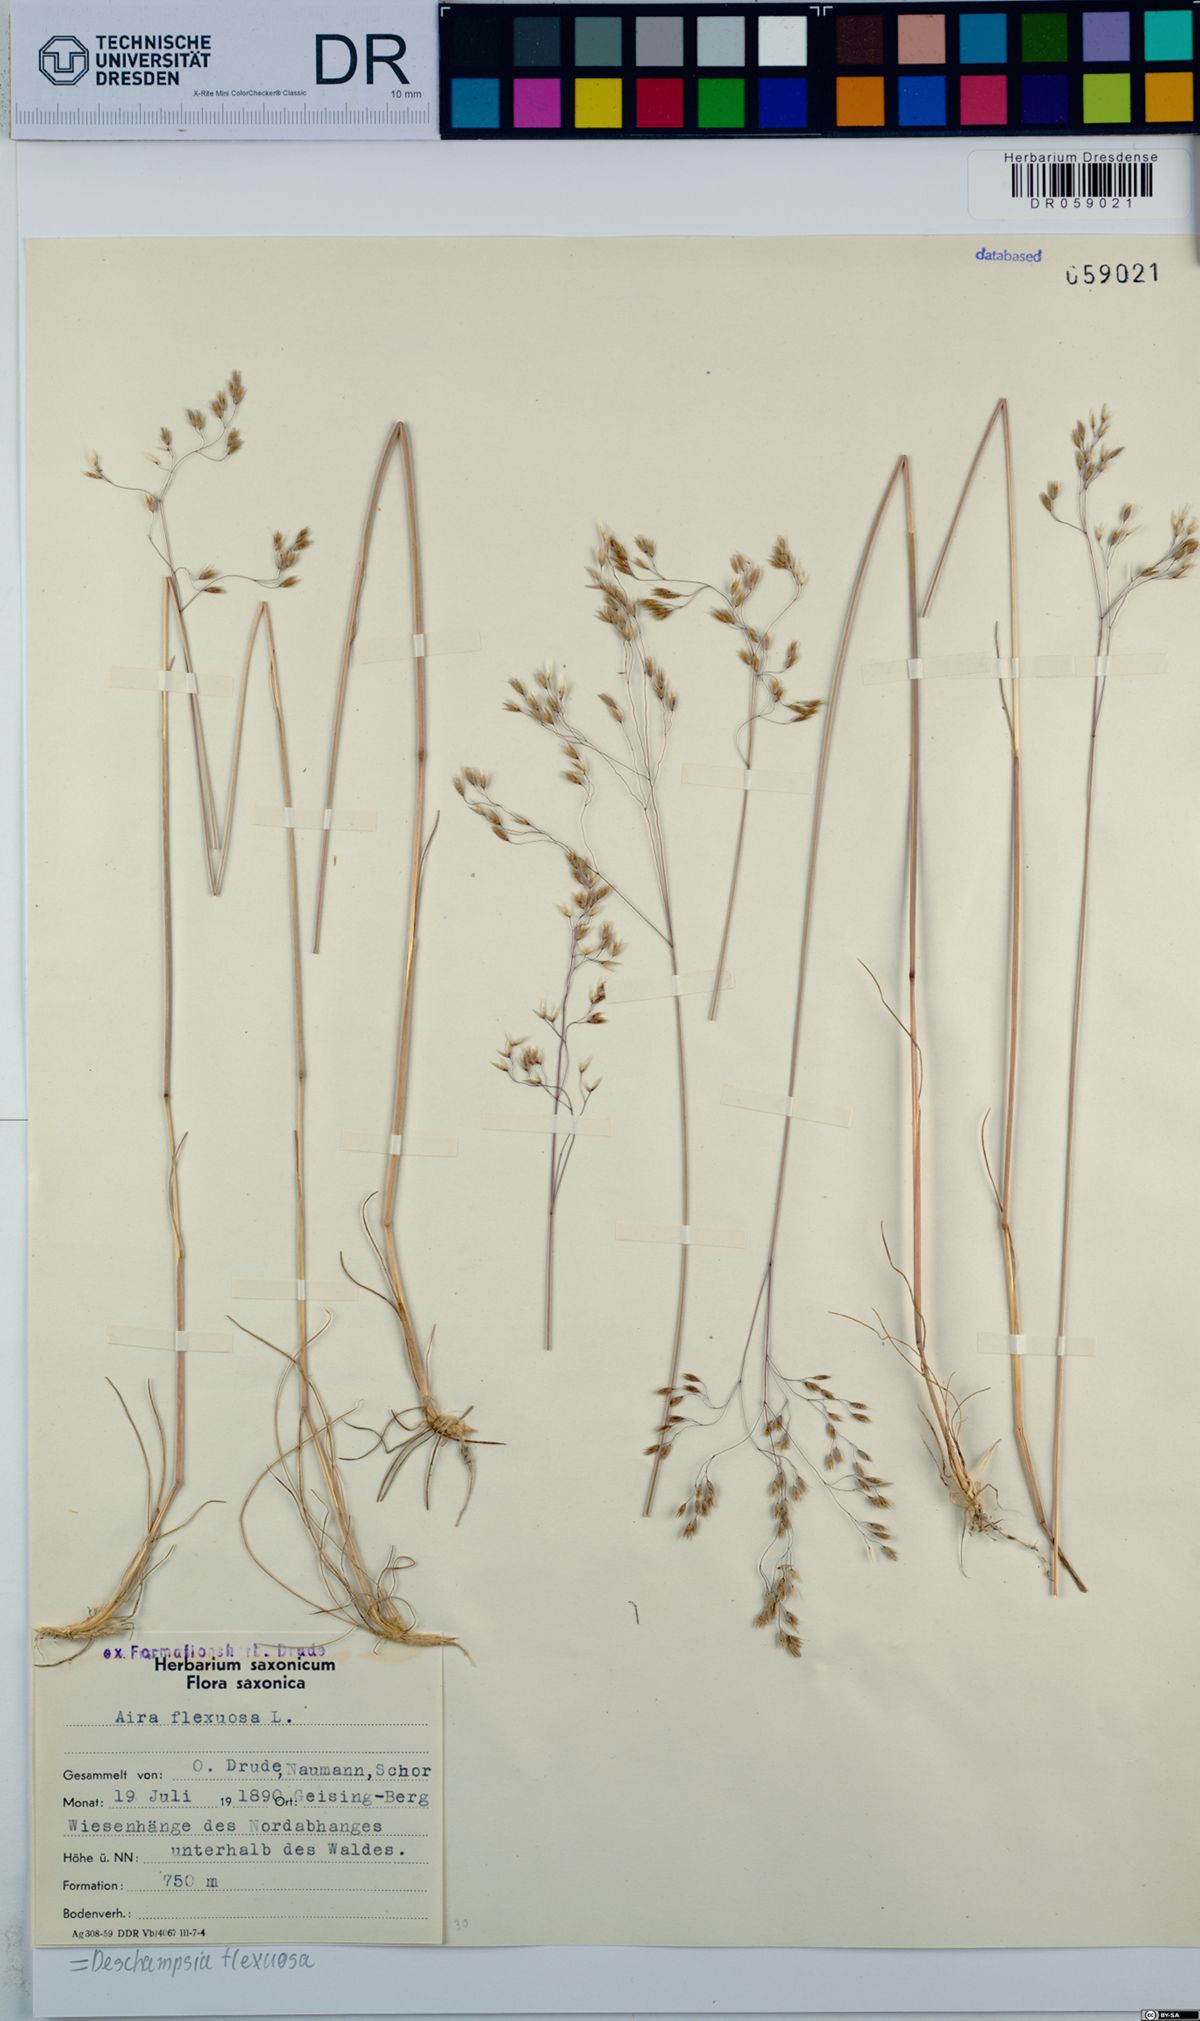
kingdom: Plantae
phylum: Tracheophyta
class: Liliopsida
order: Poales
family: Poaceae
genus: Avenella
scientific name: Avenella flexuosa
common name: Wavy hairgrass
